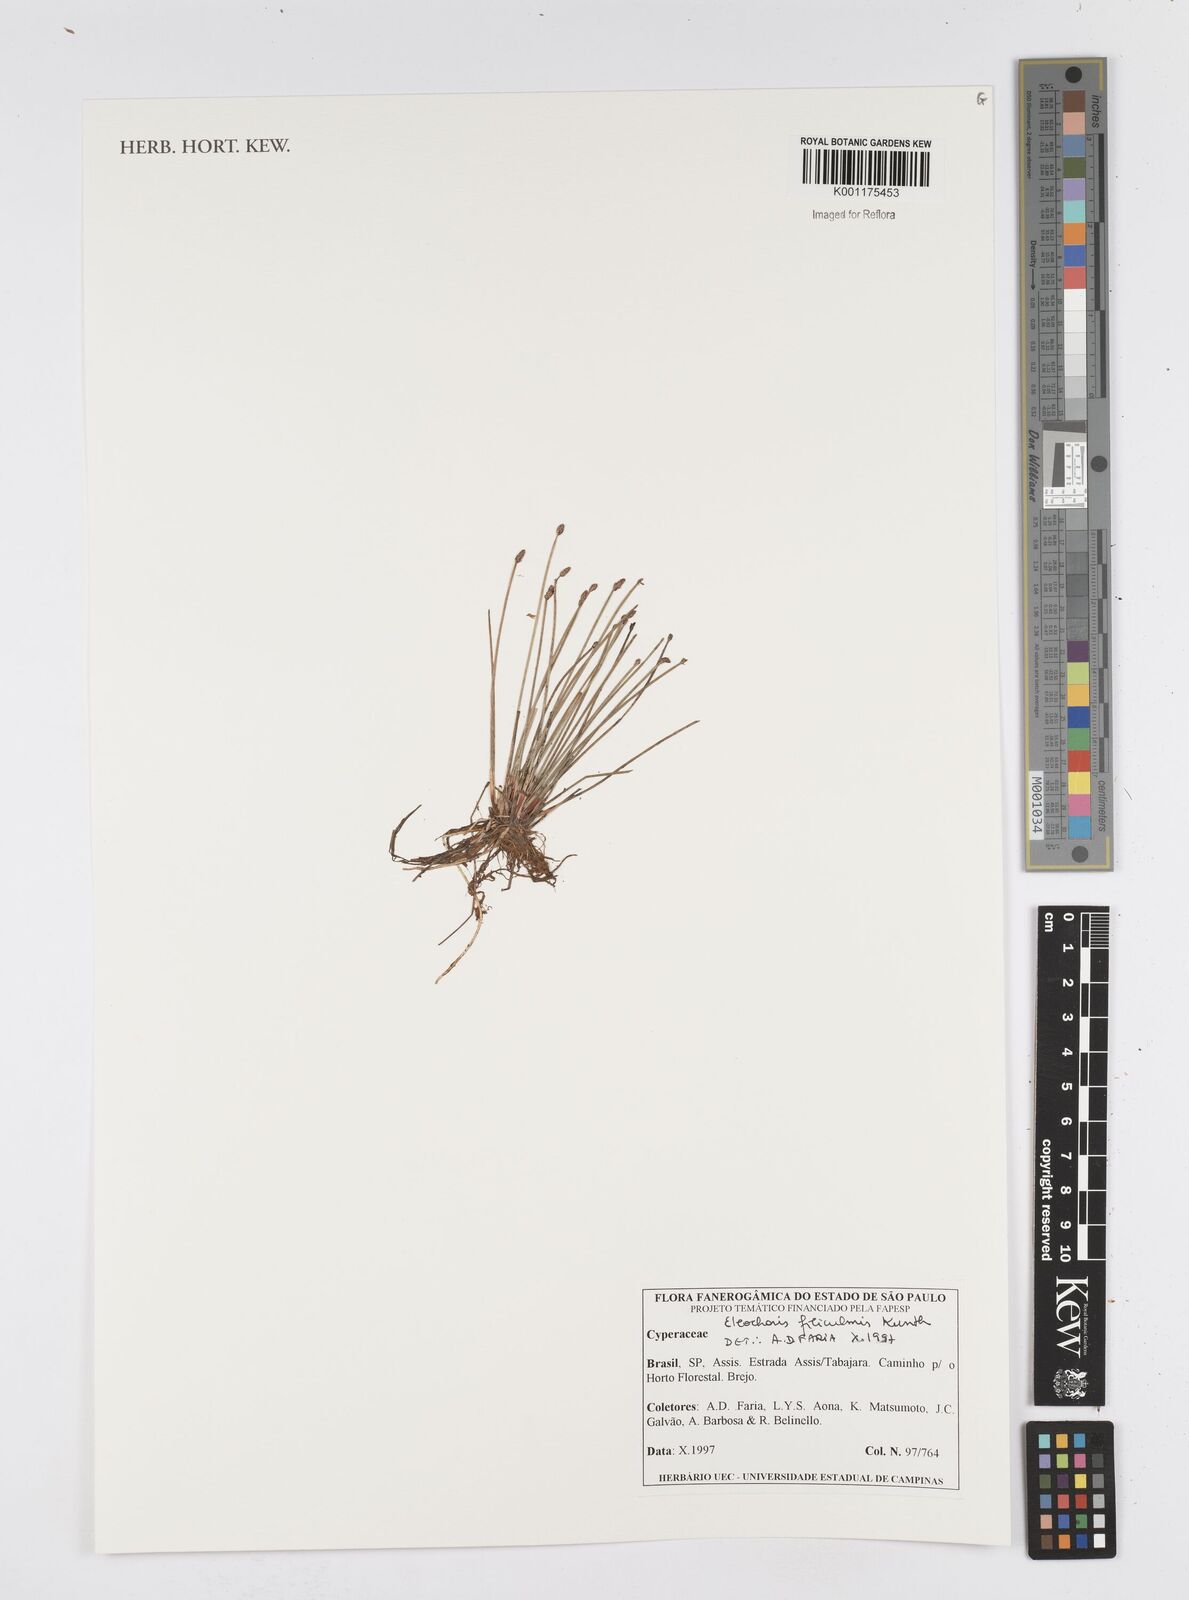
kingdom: Plantae
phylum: Tracheophyta
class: Liliopsida
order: Poales
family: Cyperaceae
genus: Eleocharis
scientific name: Eleocharis filiculmis
